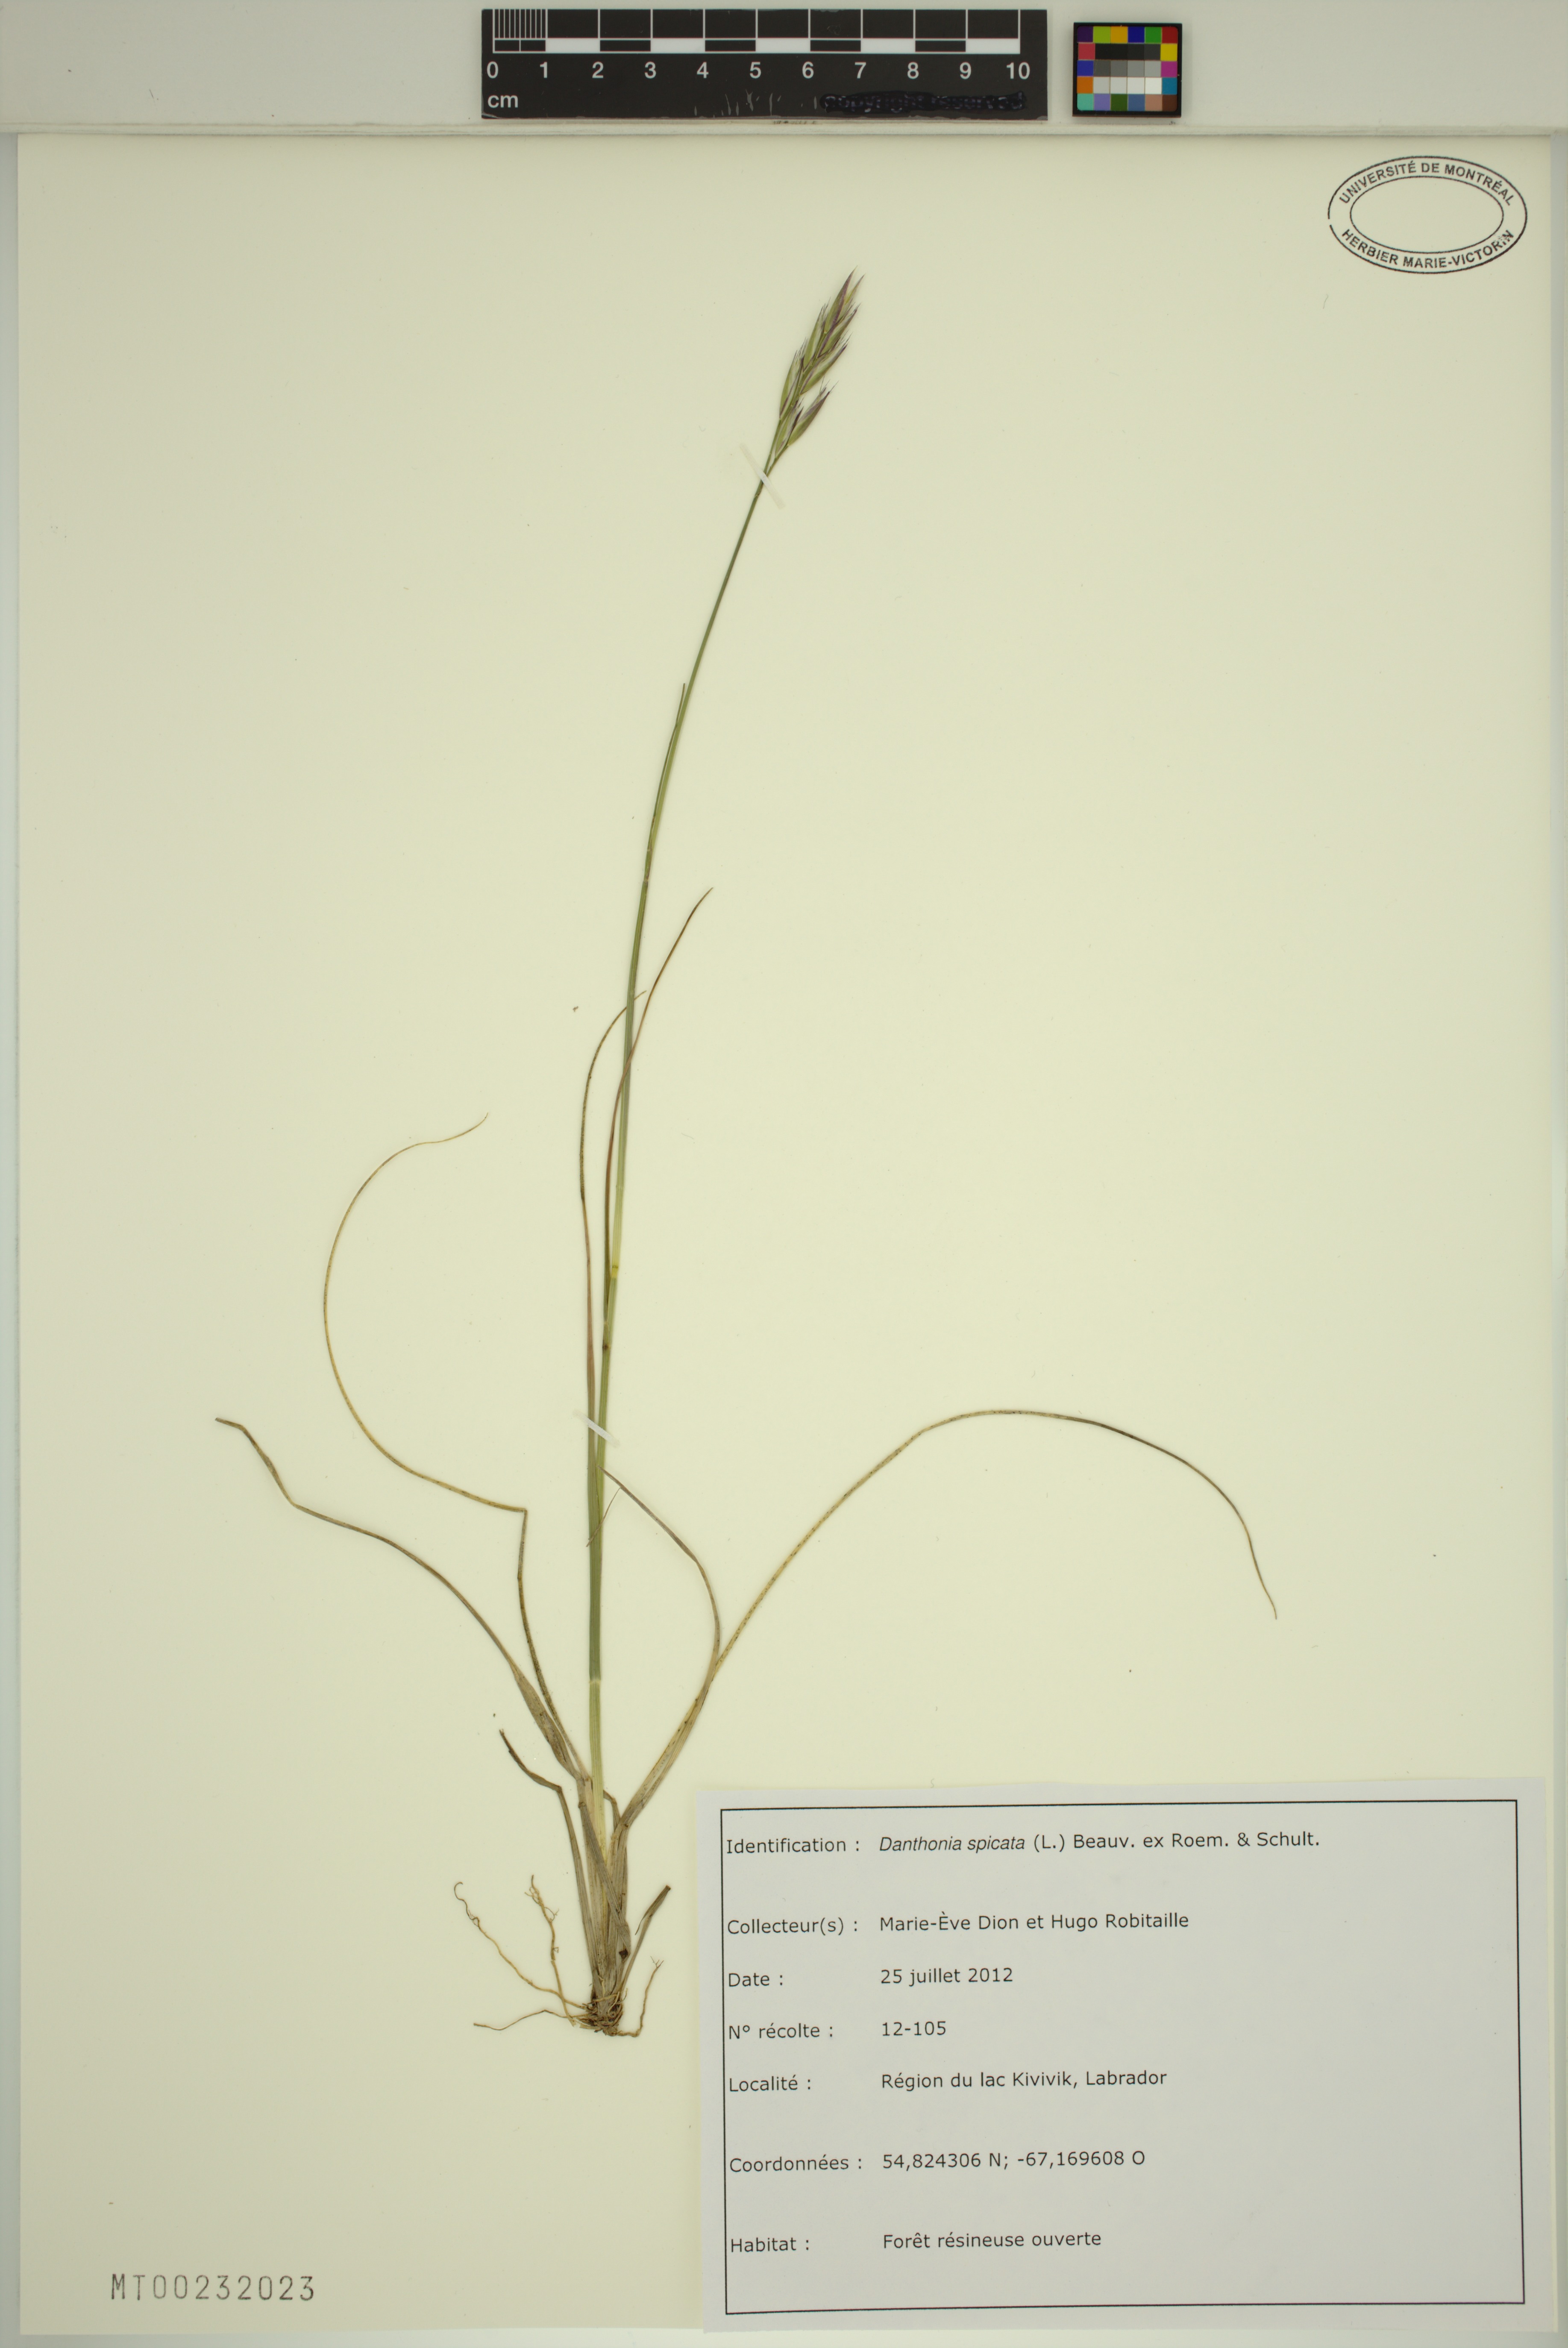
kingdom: Plantae
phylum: Tracheophyta
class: Liliopsida
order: Poales
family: Poaceae
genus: Danthonia
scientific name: Danthonia spicata
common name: Common wild oatgrass
